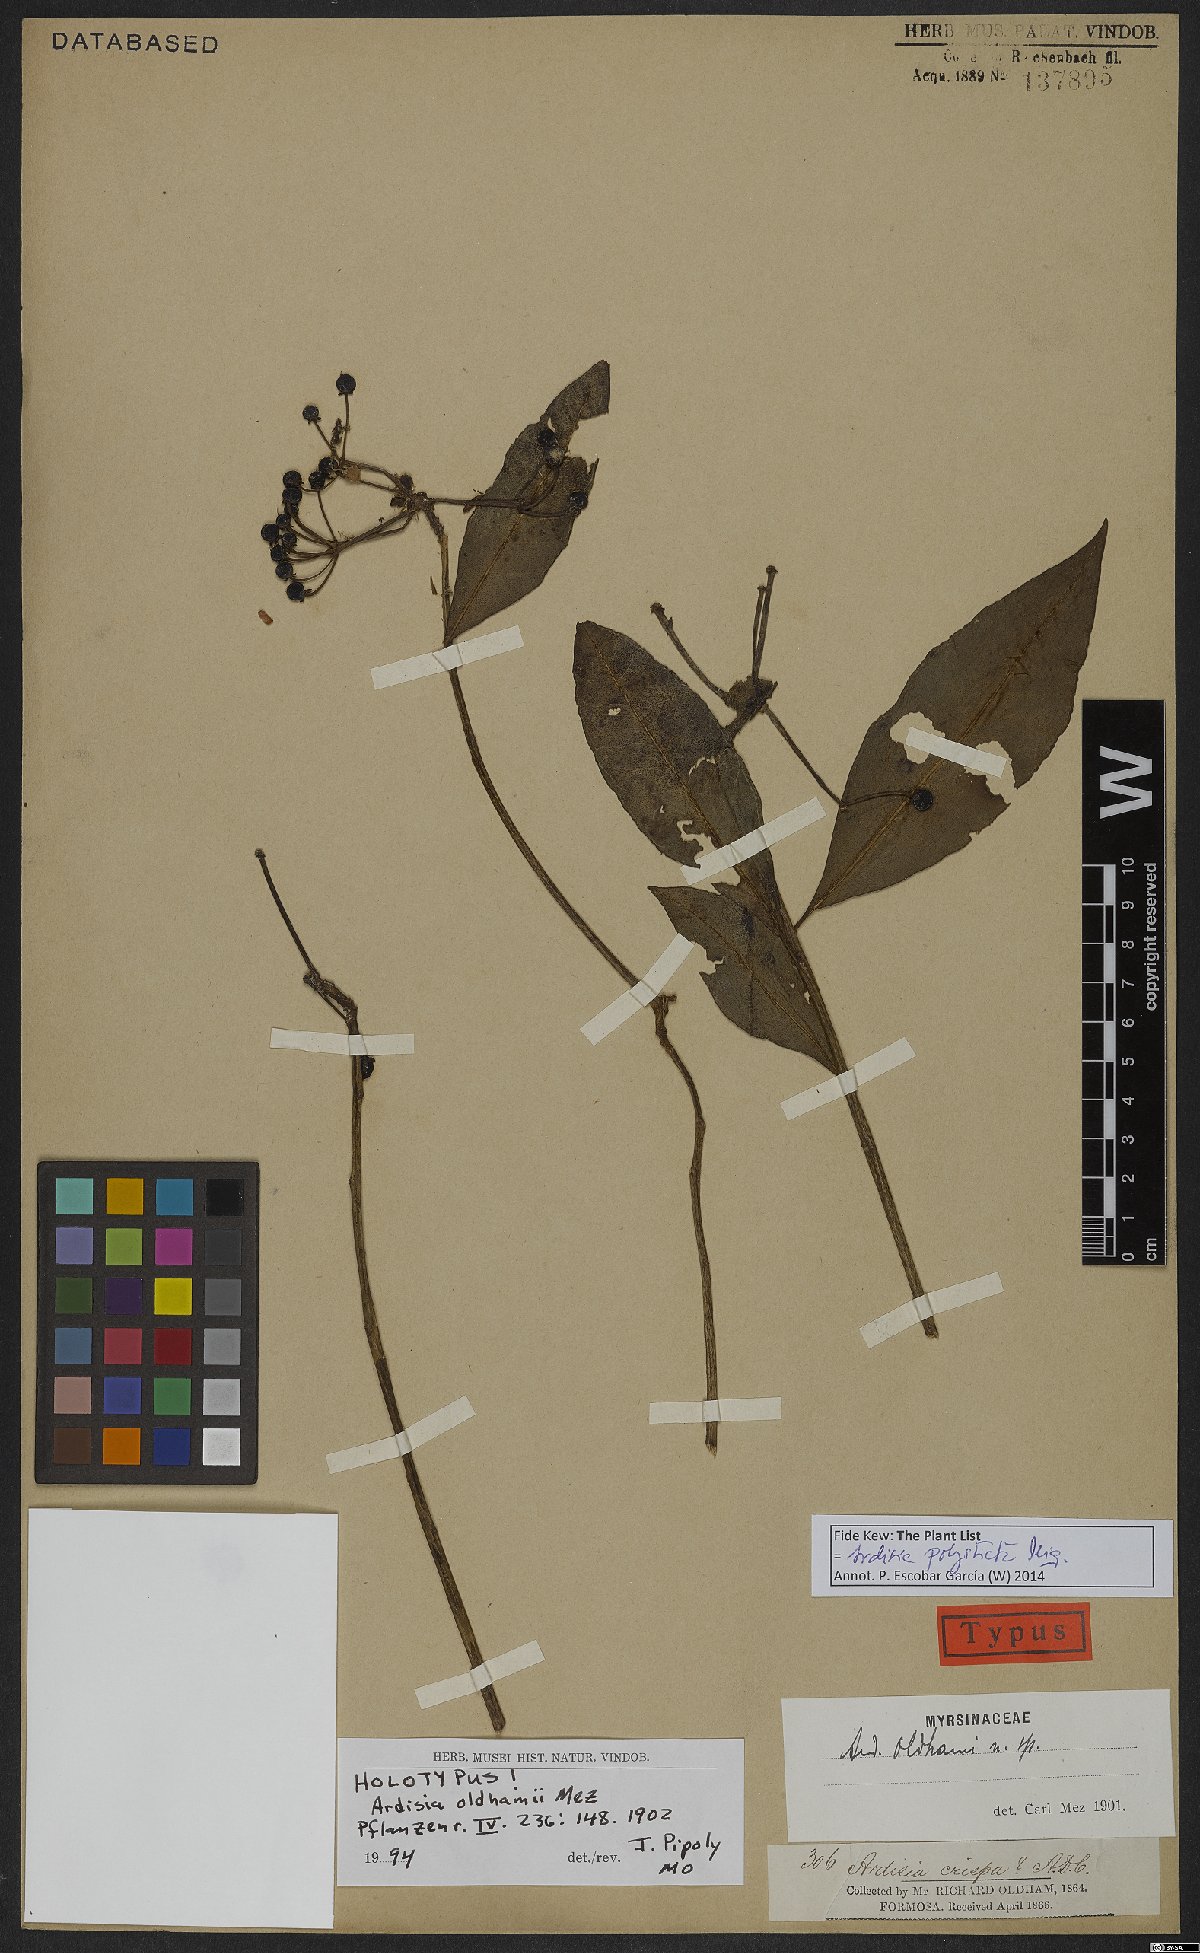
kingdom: Plantae
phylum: Tracheophyta
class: Magnoliopsida
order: Ericales
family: Primulaceae
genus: Ardisia
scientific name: Ardisia polysticta
